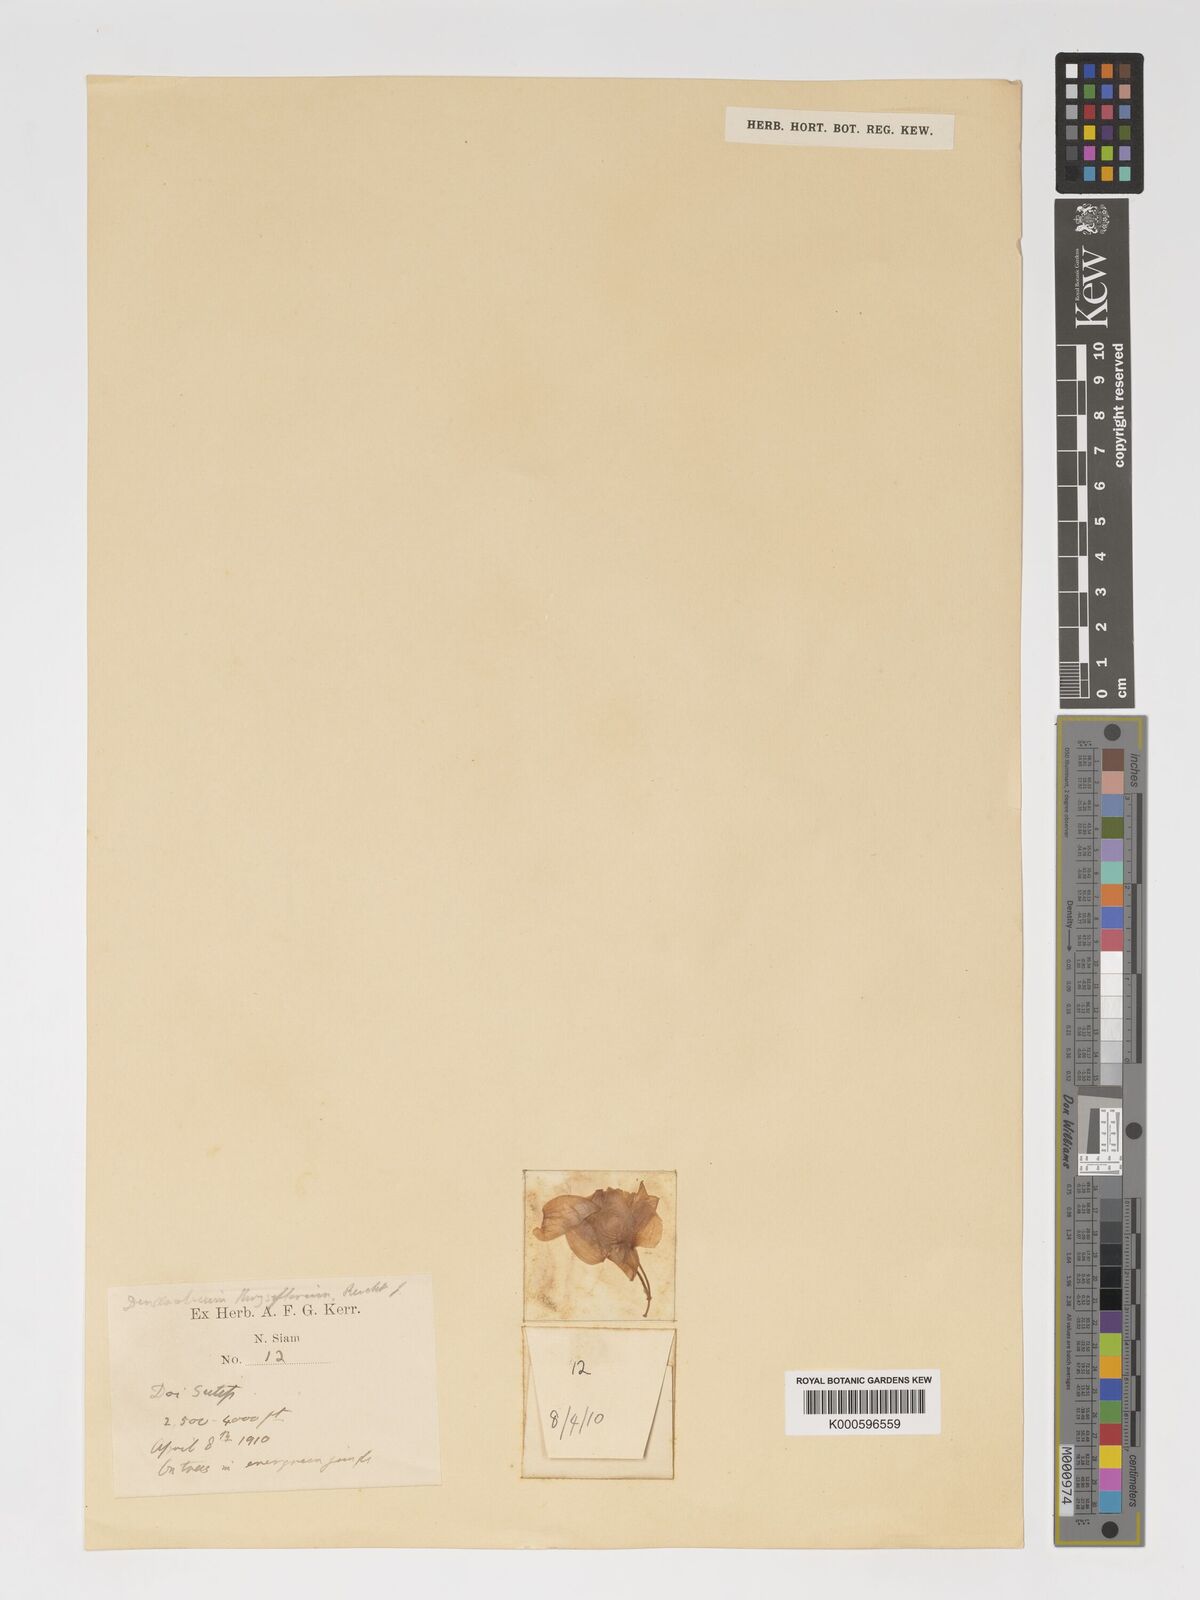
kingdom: Plantae
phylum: Tracheophyta
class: Liliopsida
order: Asparagales
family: Orchidaceae
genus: Dendrobium
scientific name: Dendrobium
